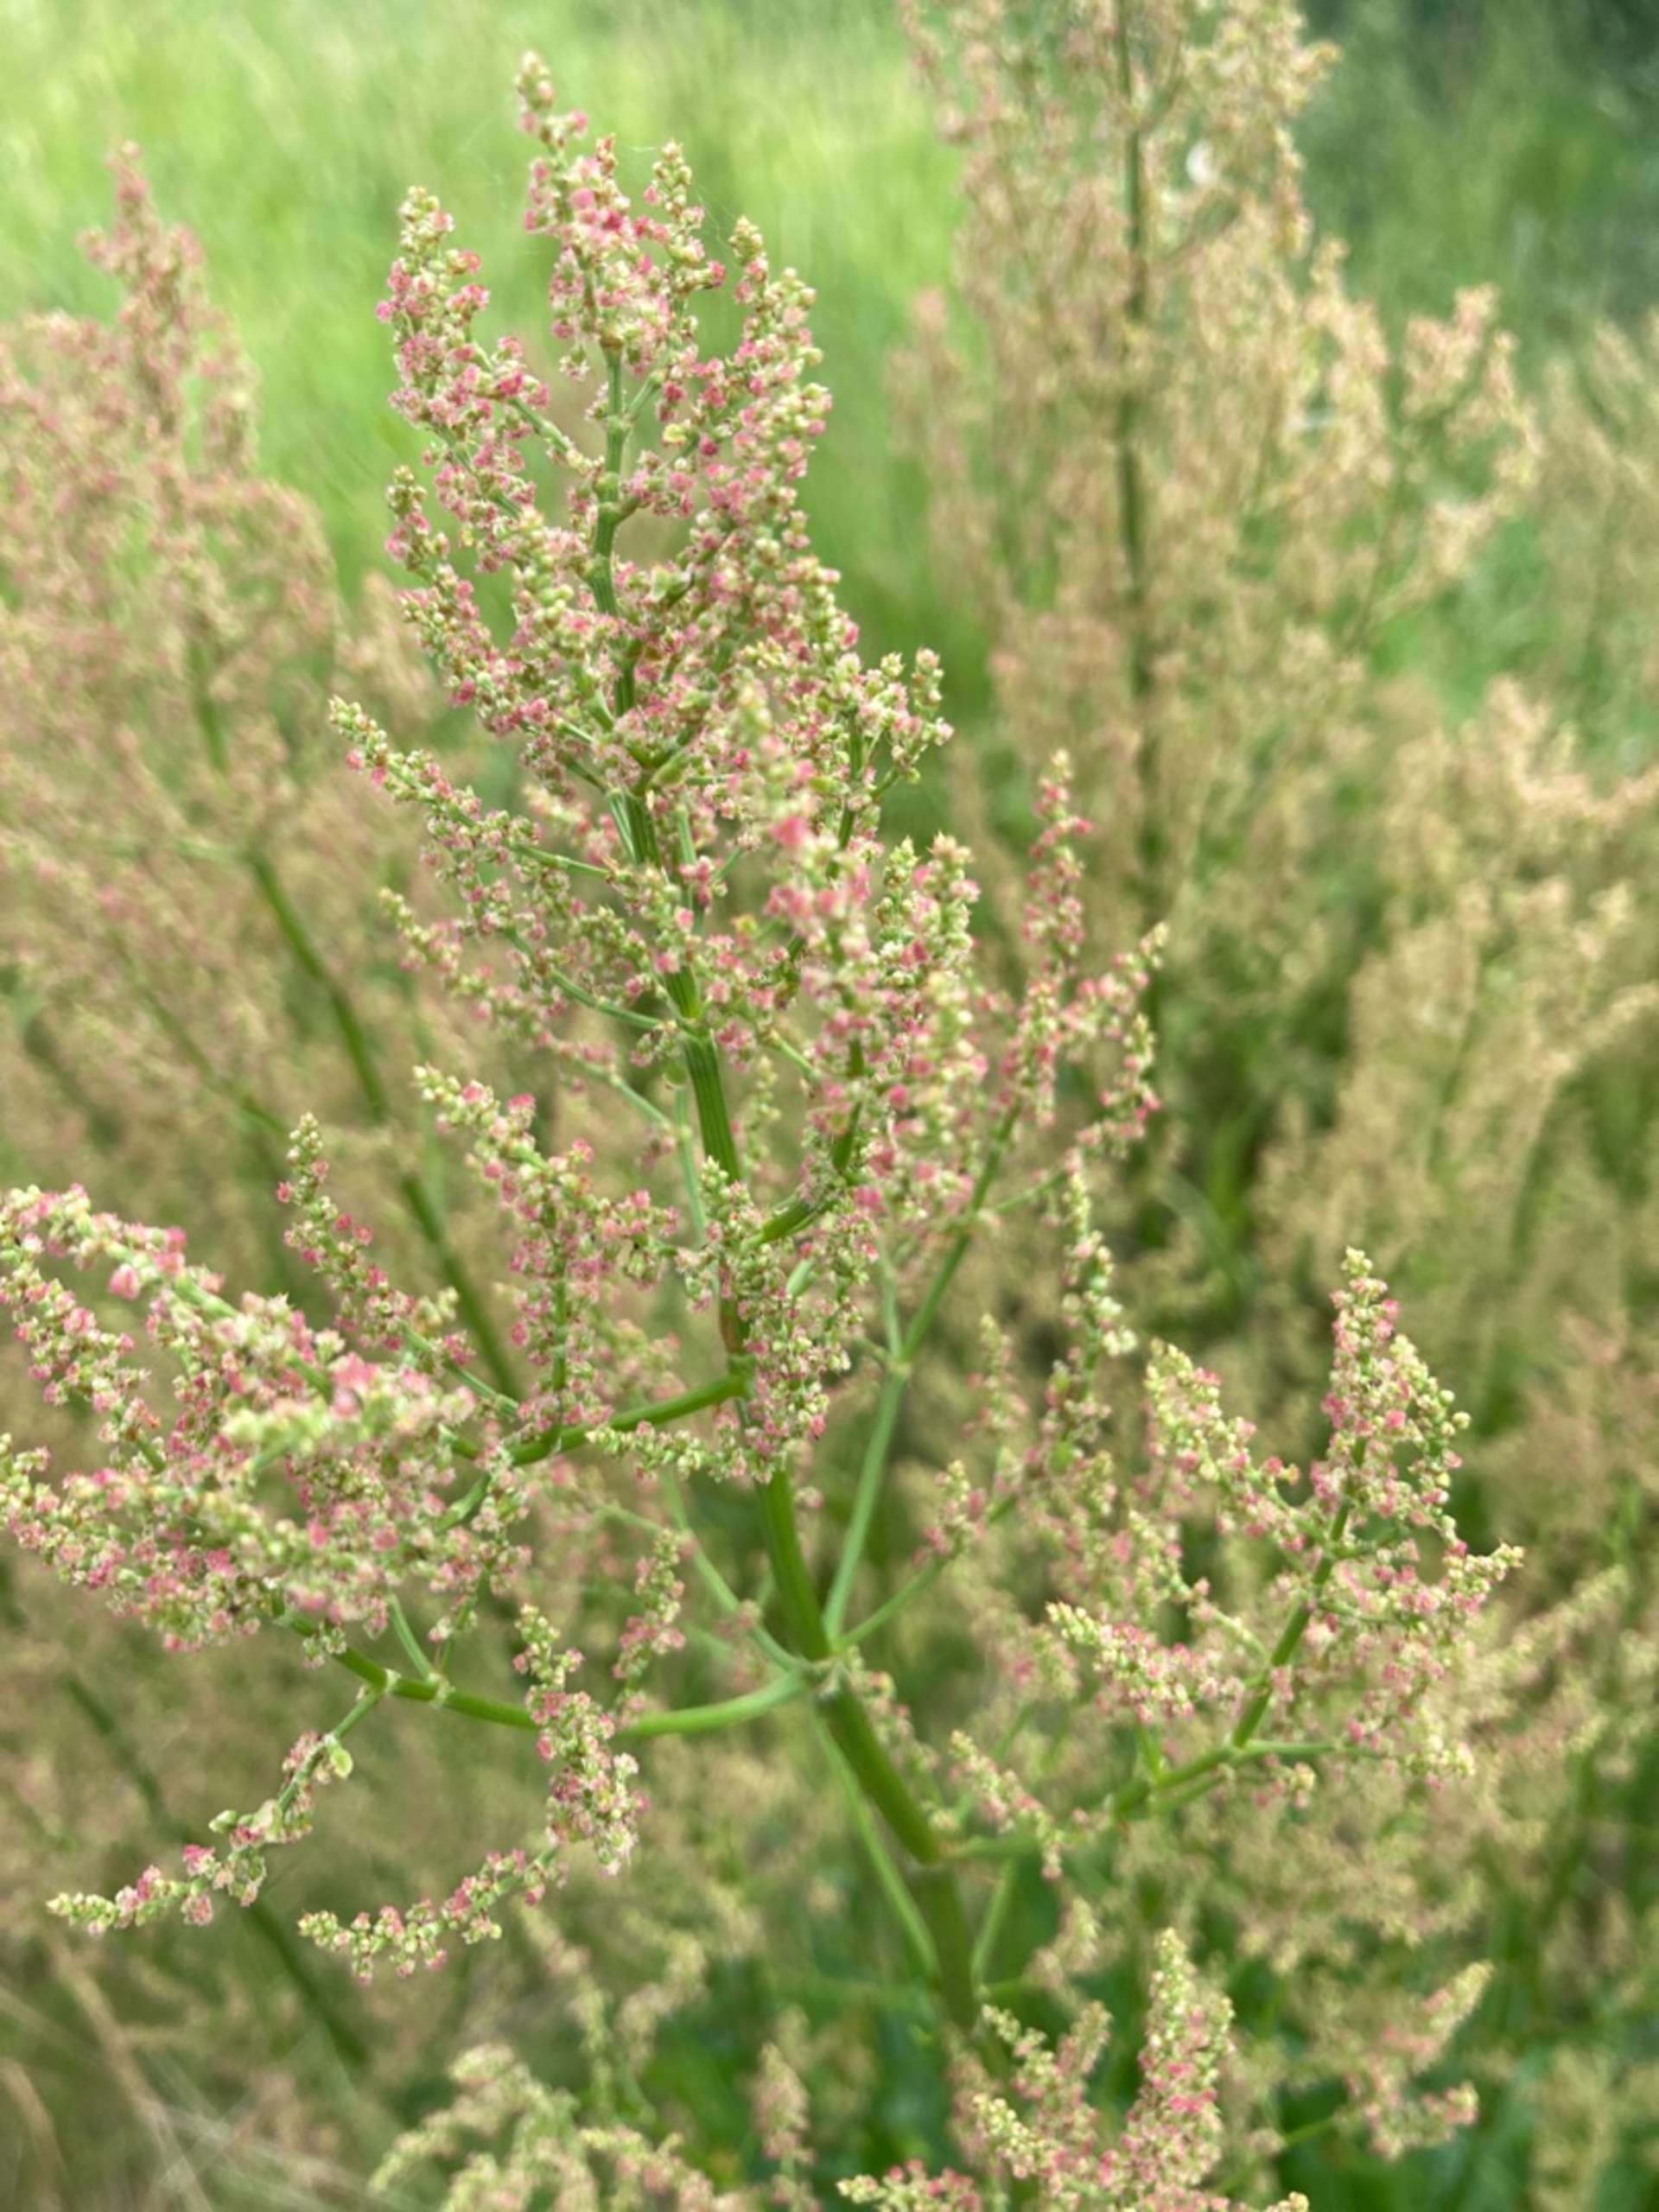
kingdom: Plantae
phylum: Tracheophyta
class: Magnoliopsida
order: Caryophyllales
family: Polygonaceae
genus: Rumex
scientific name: Rumex thyrsiflorus
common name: Dusk-syre
